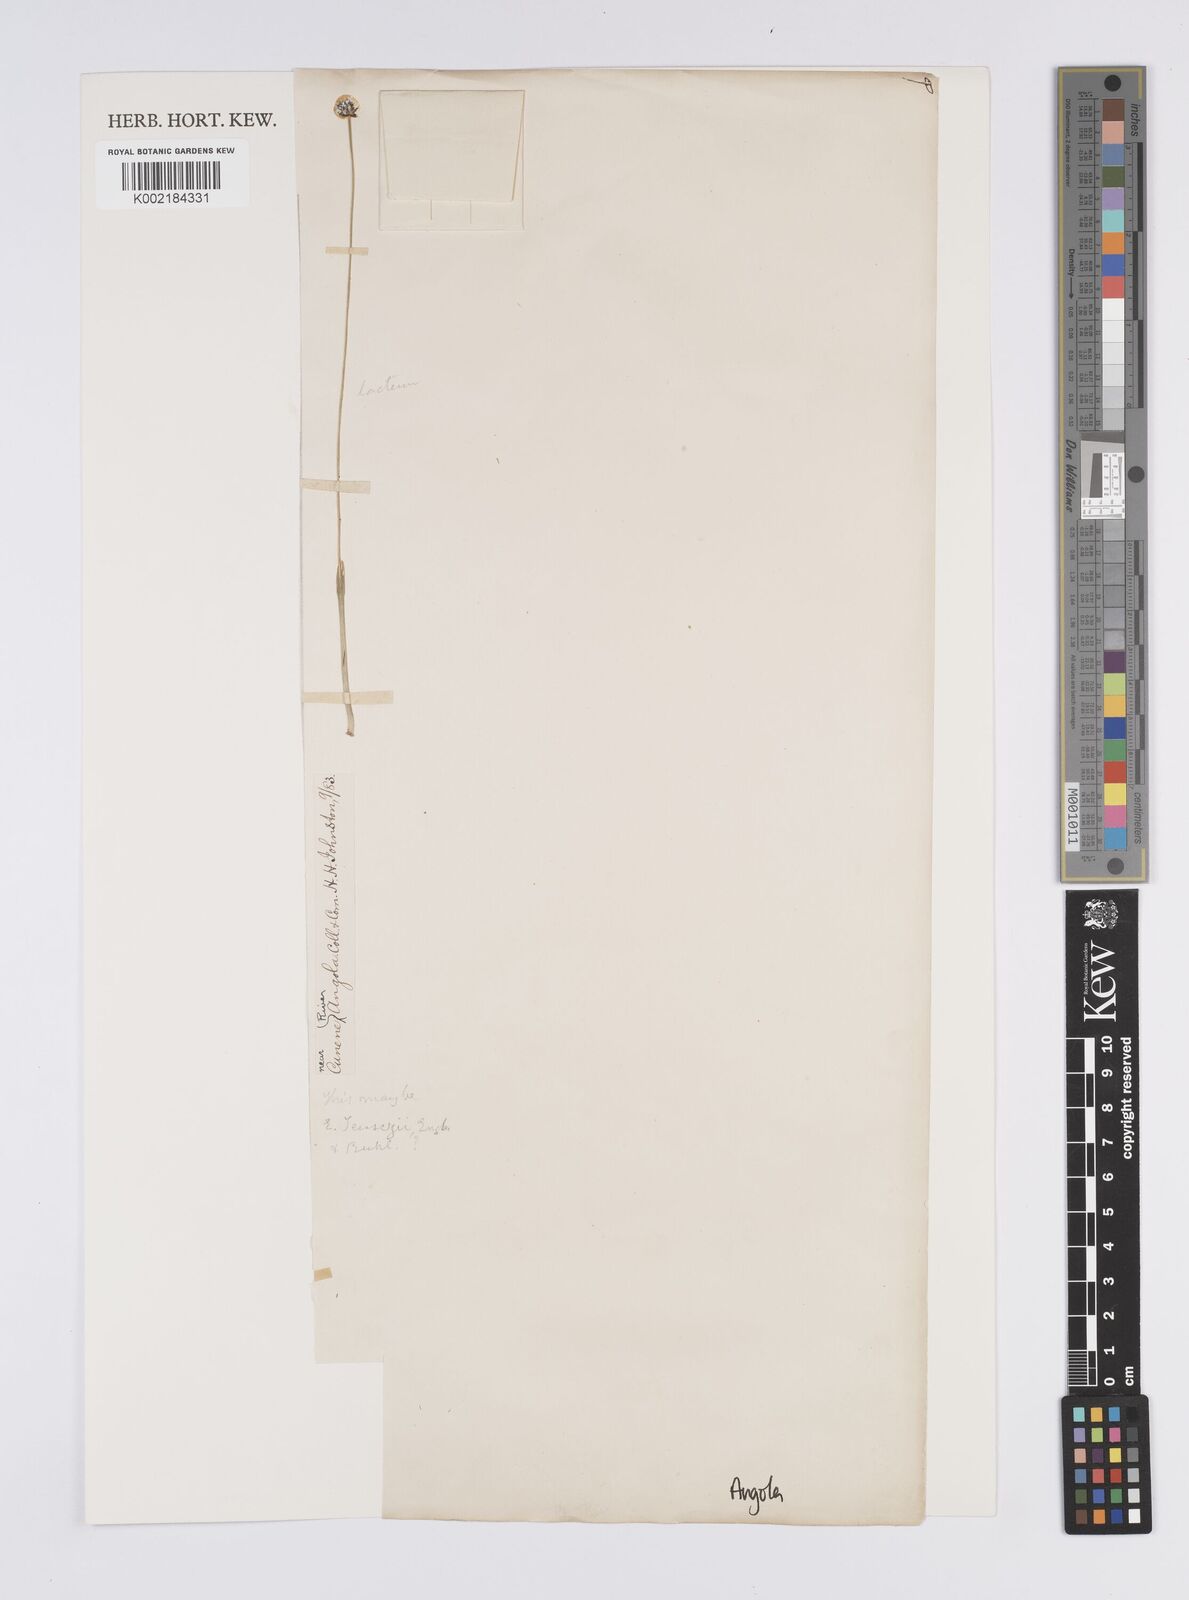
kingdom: Plantae
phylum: Tracheophyta
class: Liliopsida
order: Poales
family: Eriocaulaceae
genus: Eriocaulon
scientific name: Eriocaulon teusczii
